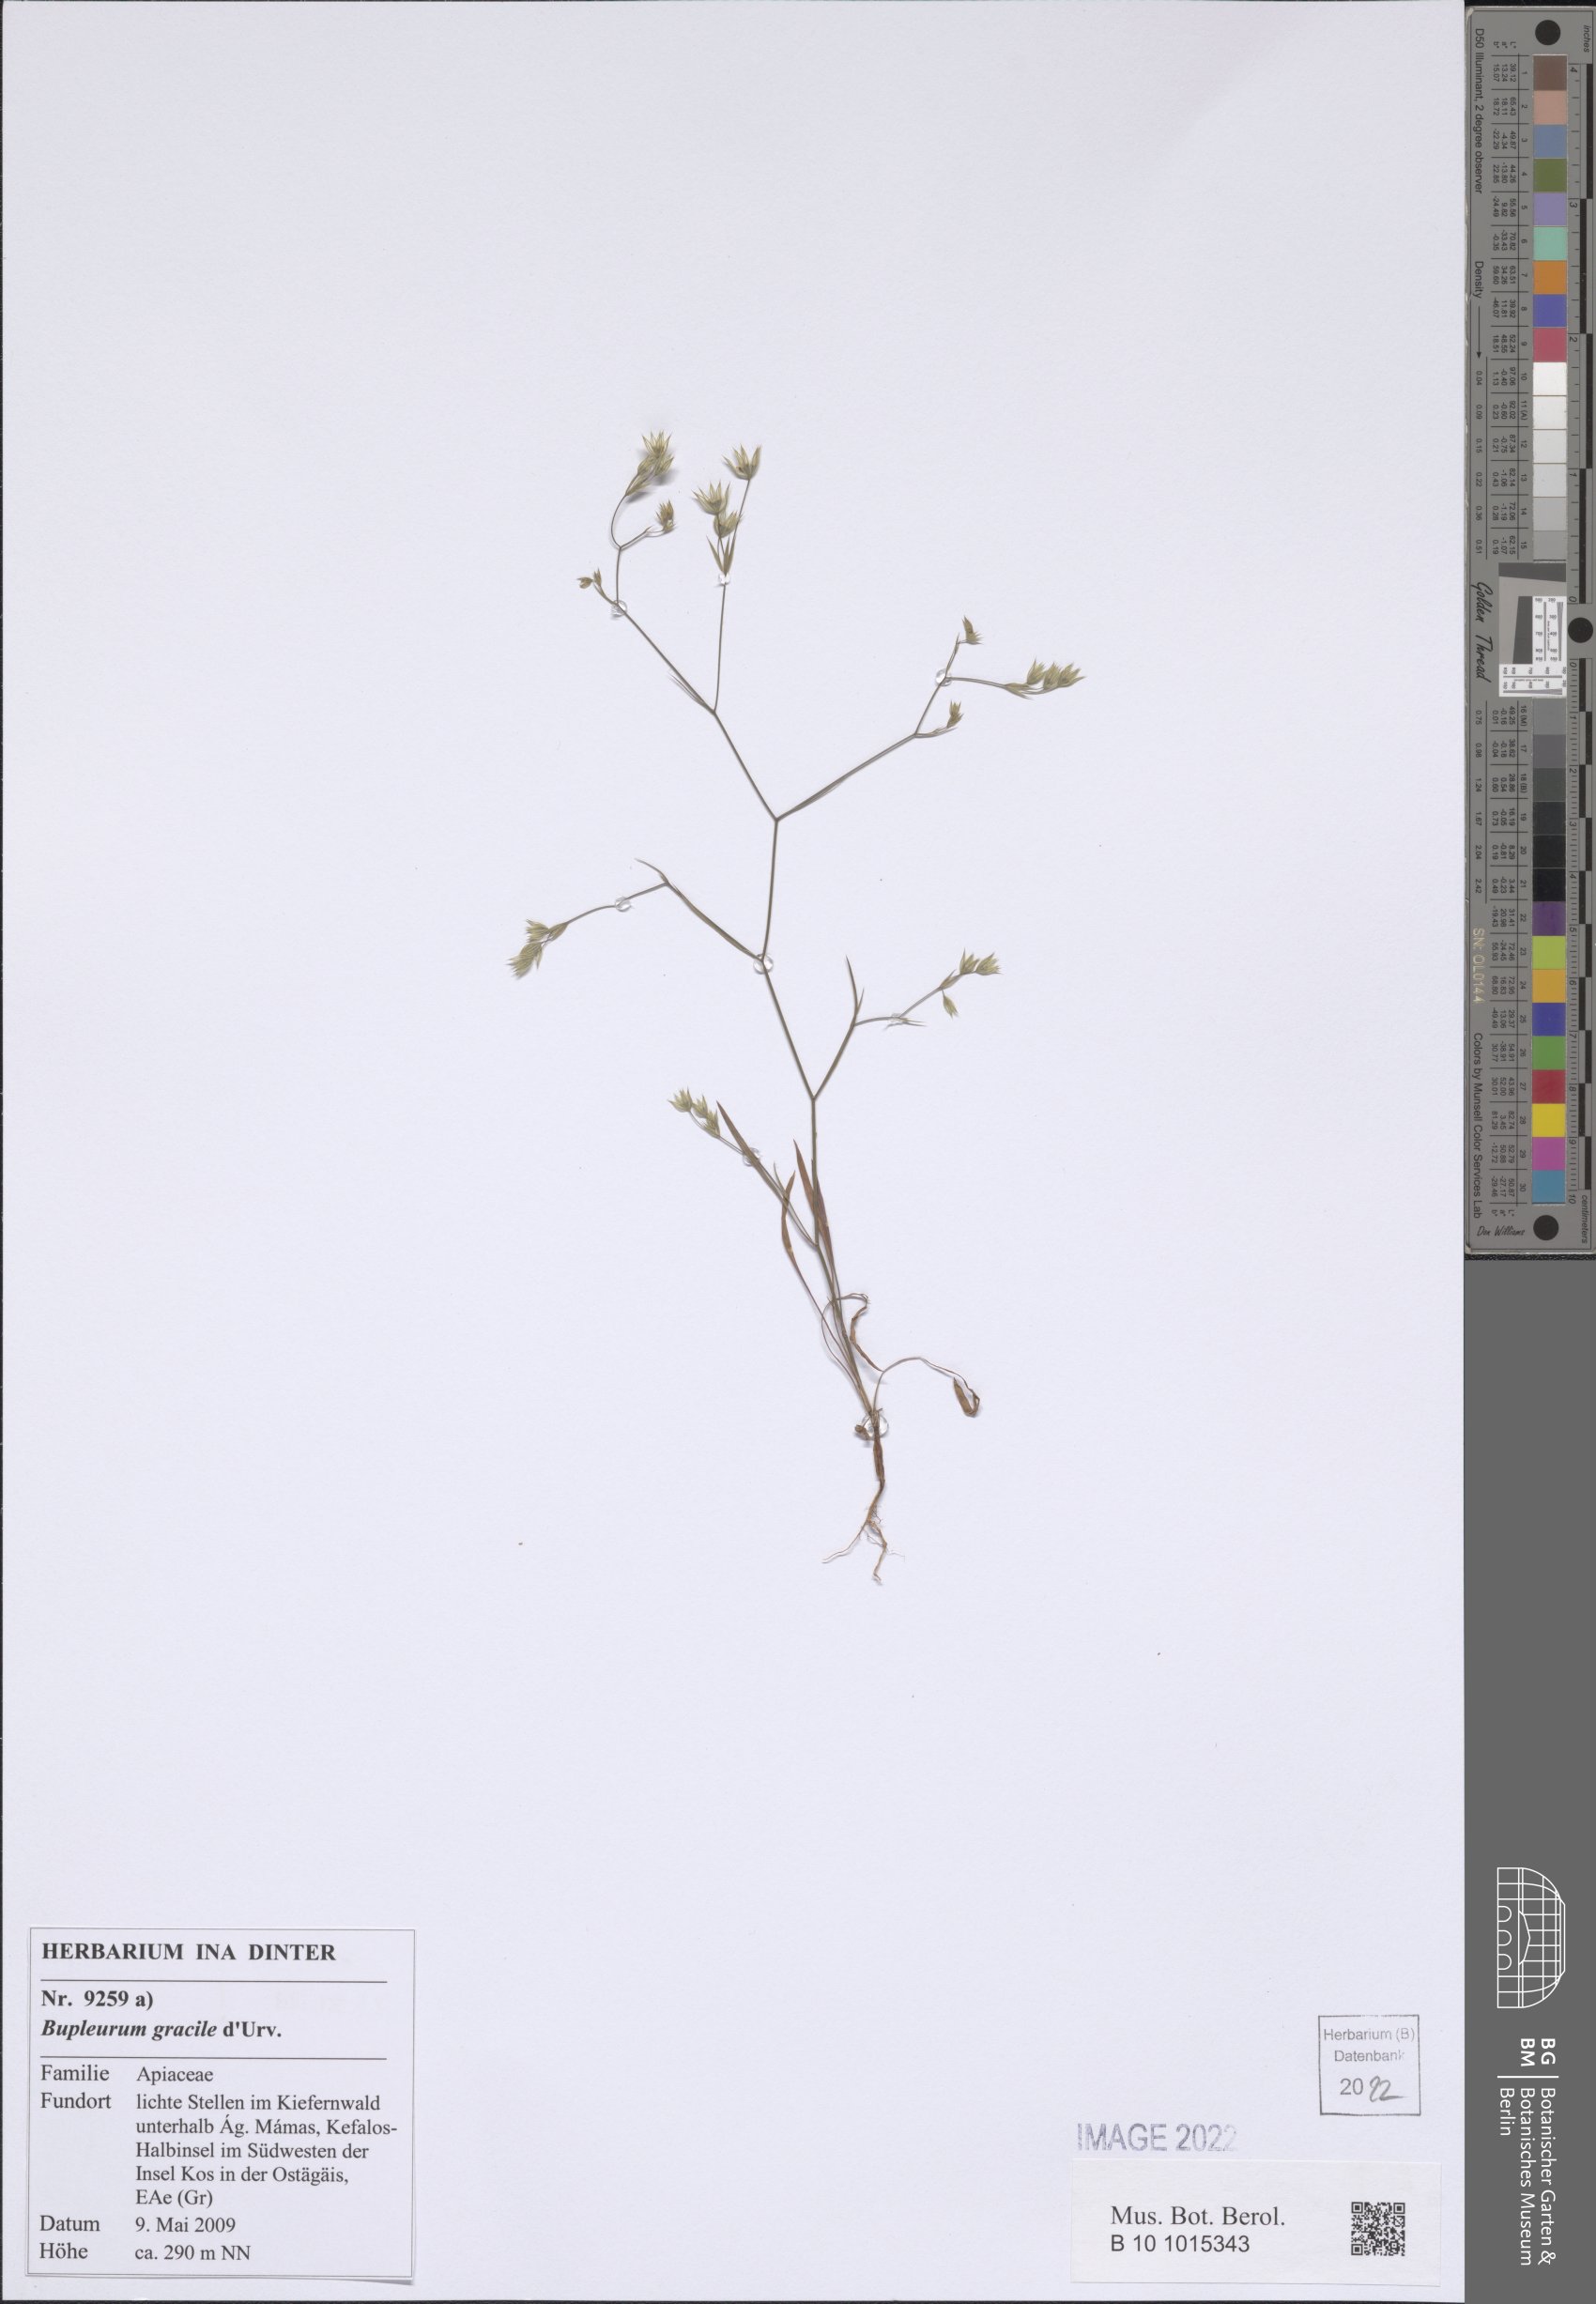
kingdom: Plantae
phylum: Tracheophyta
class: Magnoliopsida
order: Apiales
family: Apiaceae
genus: Bupleurum
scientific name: Bupleurum gracile
